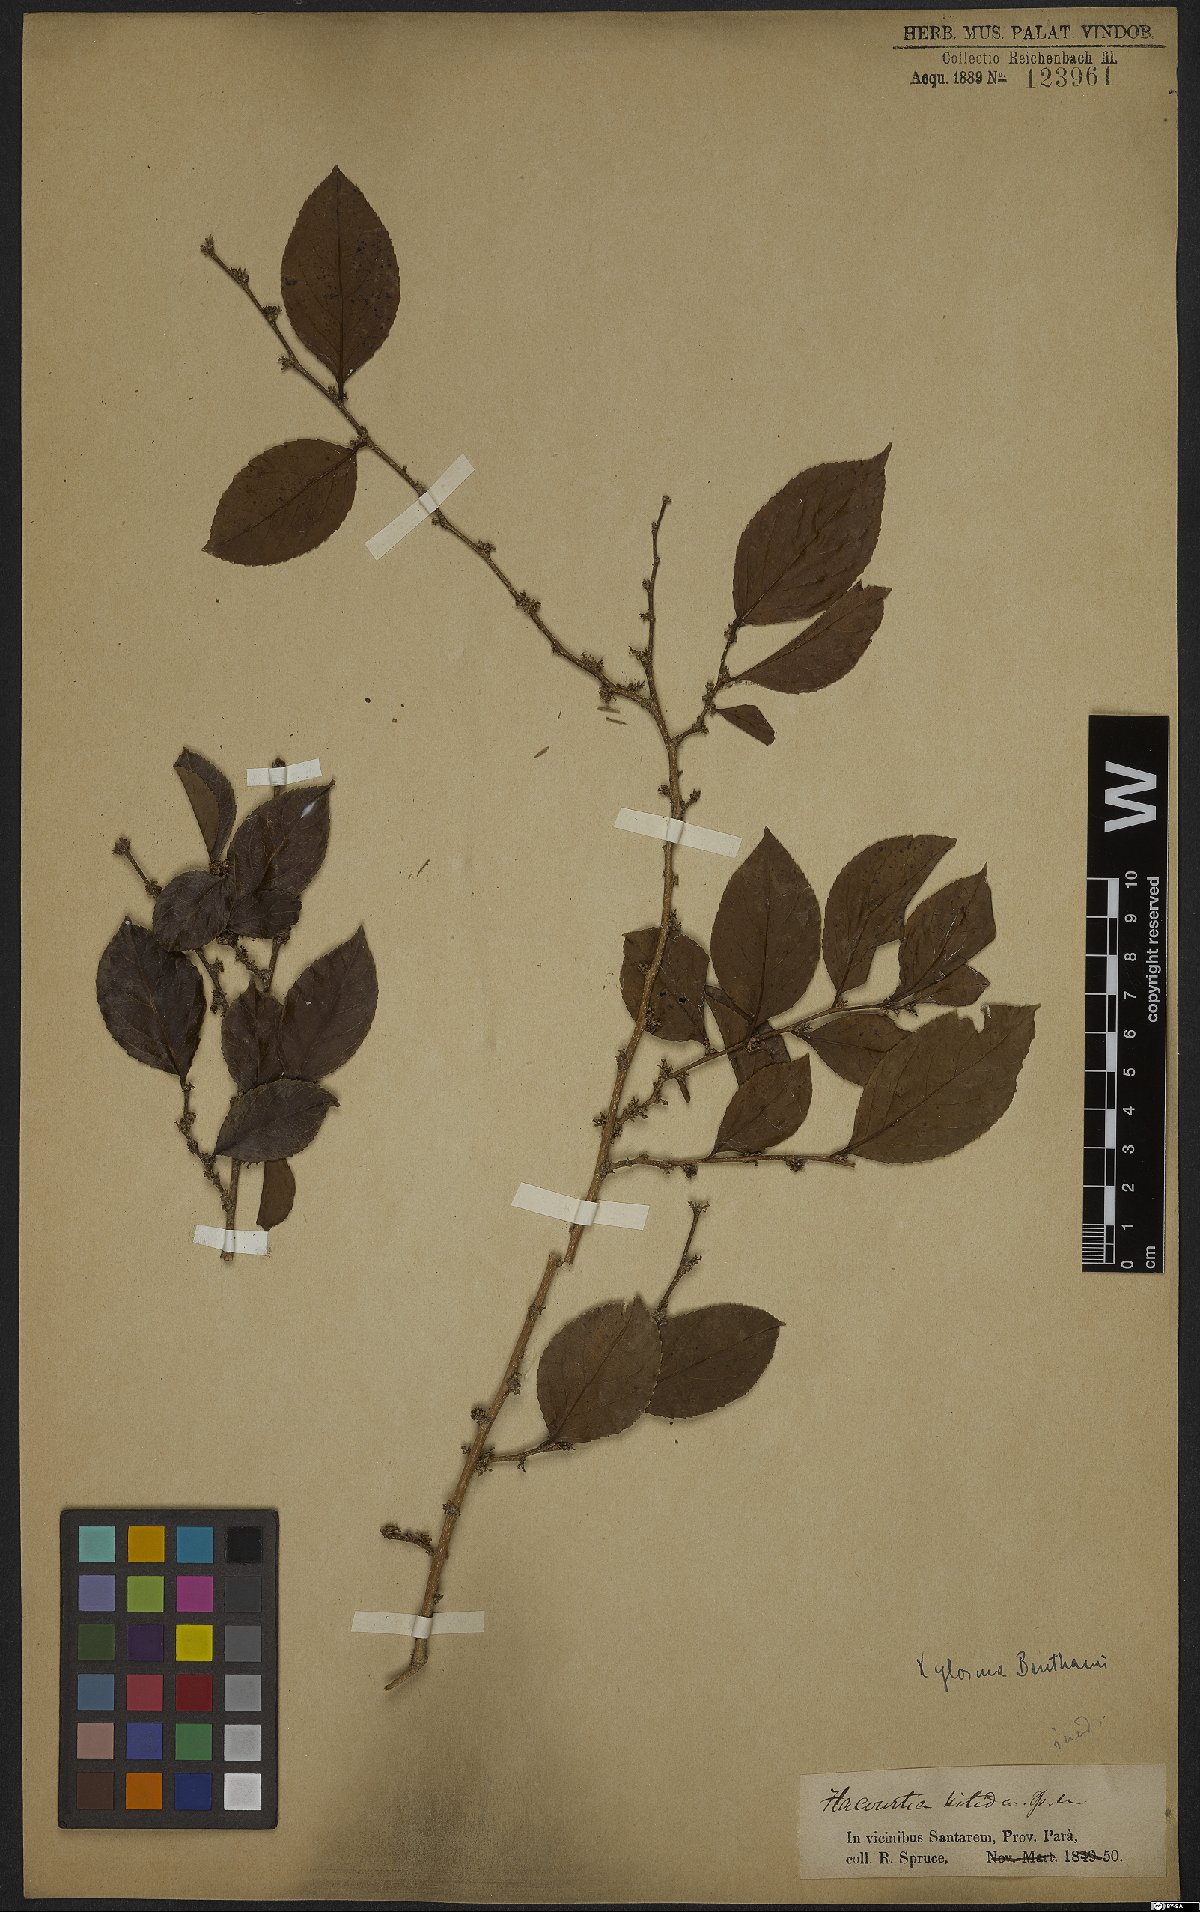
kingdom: Plantae
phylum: Tracheophyta
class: Magnoliopsida
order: Malpighiales
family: Salicaceae
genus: Xylosma
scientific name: Xylosma benthamii
